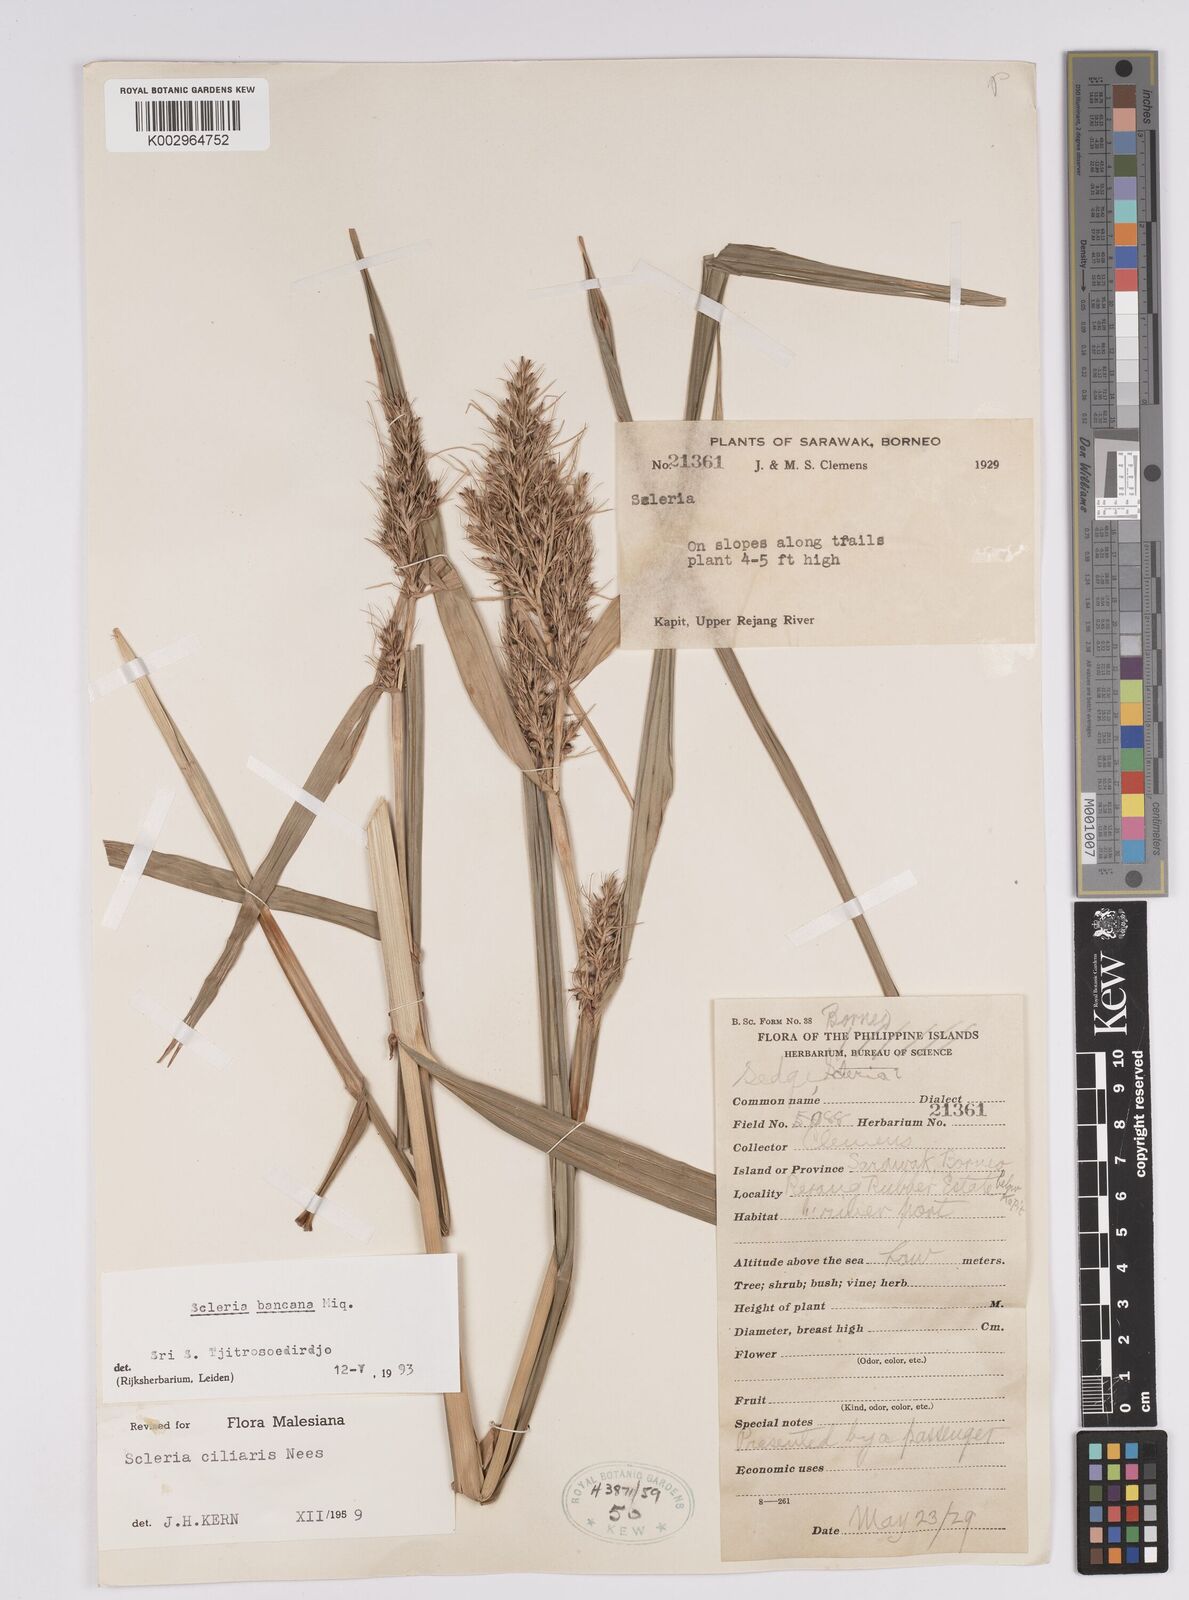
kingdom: Plantae
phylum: Tracheophyta
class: Liliopsida
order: Poales
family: Cyperaceae
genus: Scleria
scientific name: Scleria ciliaris
